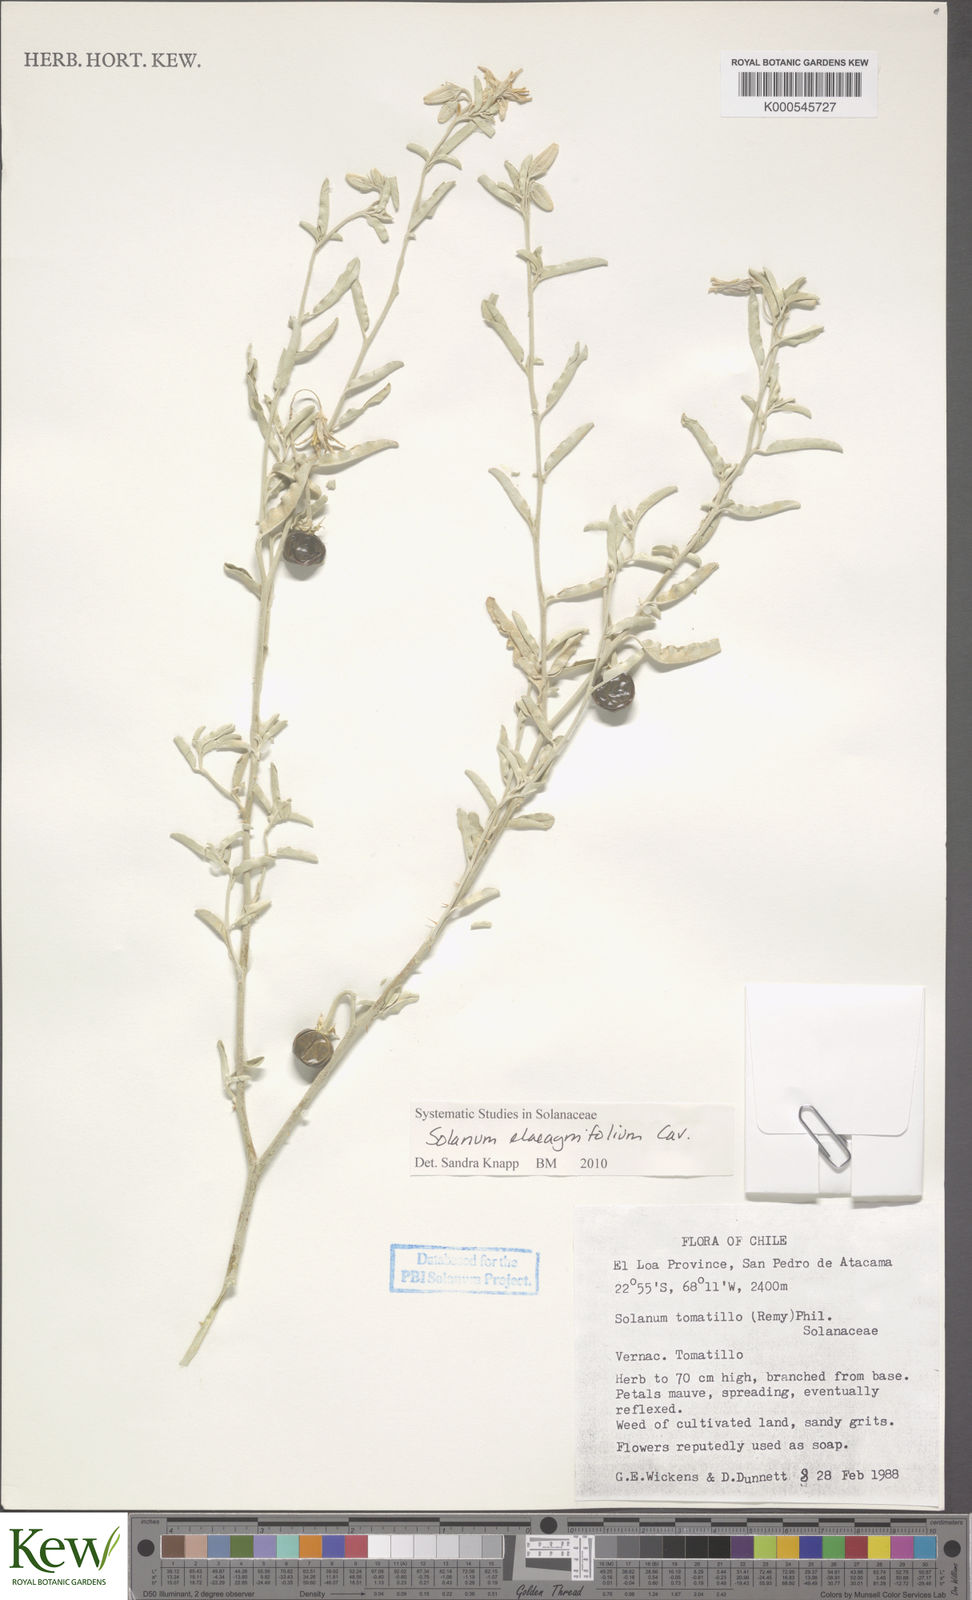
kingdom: Plantae
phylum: Tracheophyta
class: Magnoliopsida
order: Solanales
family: Solanaceae
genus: Solanum
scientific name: Solanum elaeagnifolium
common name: Silverleaf nightshade
